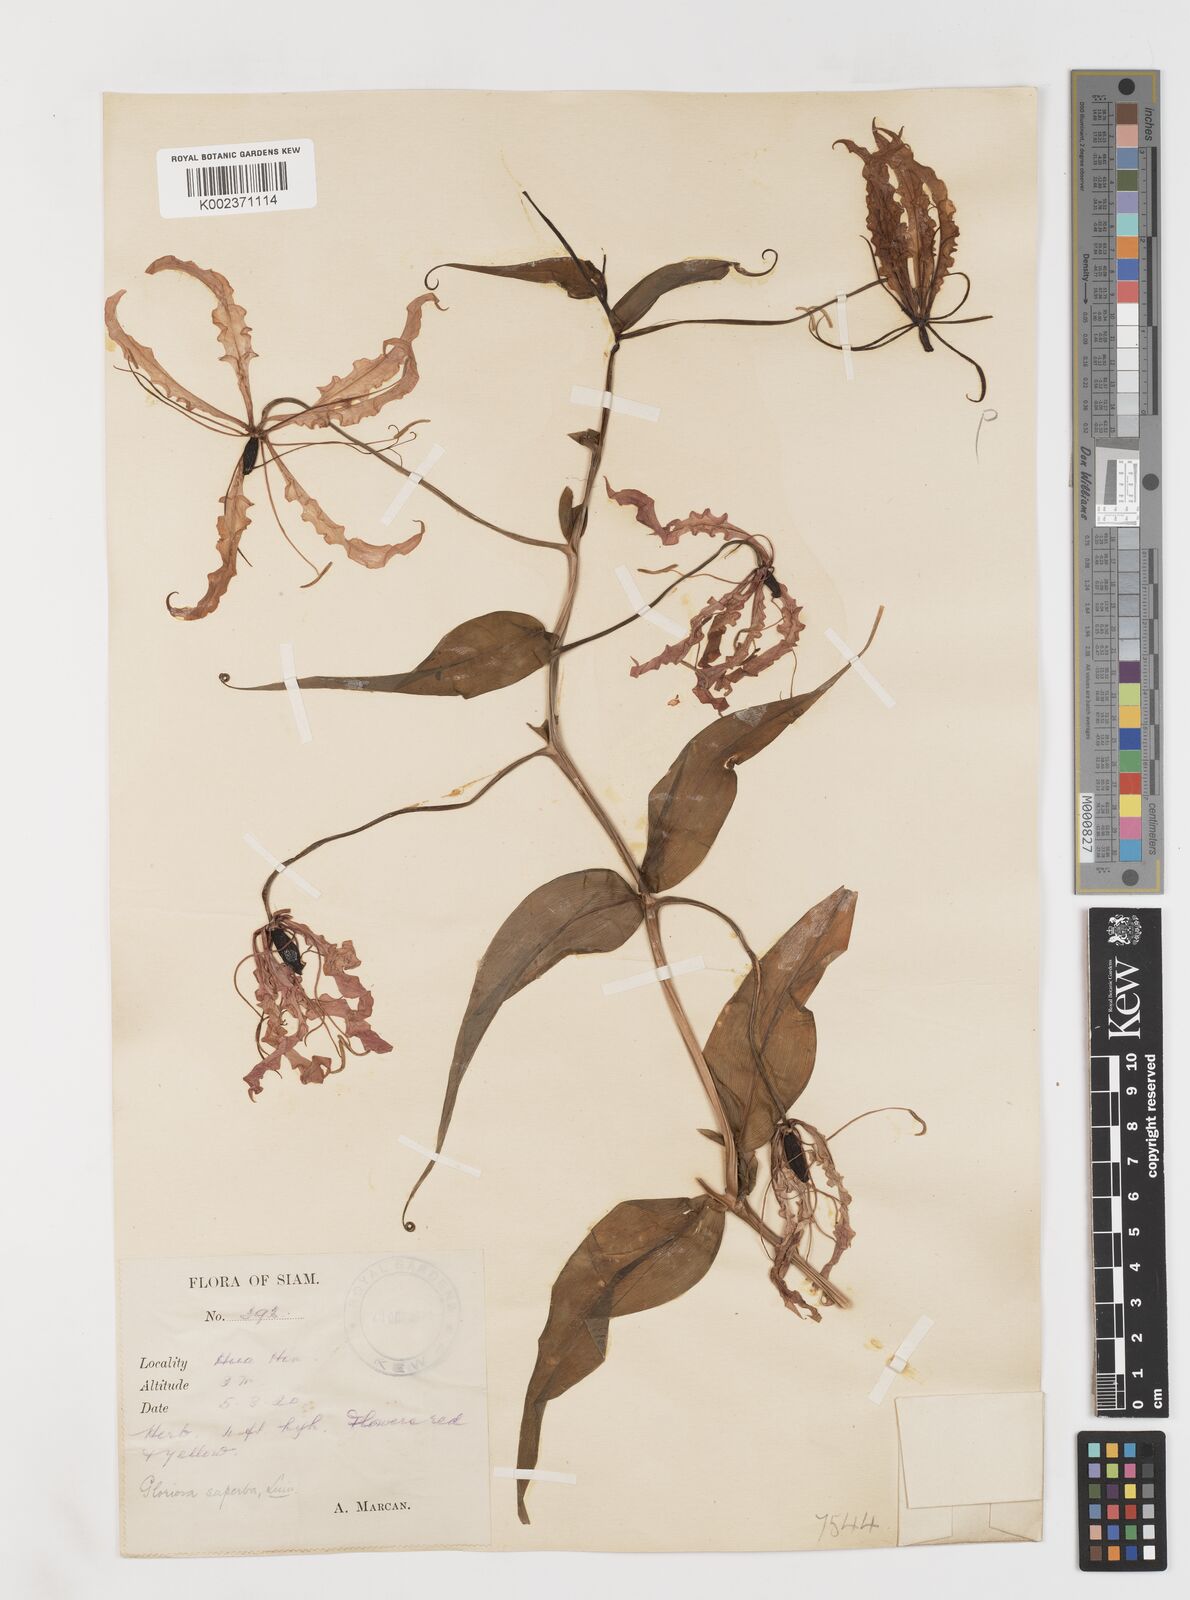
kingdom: Plantae
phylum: Tracheophyta
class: Liliopsida
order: Liliales
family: Colchicaceae
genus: Gloriosa
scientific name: Gloriosa superba
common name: Flame lily
